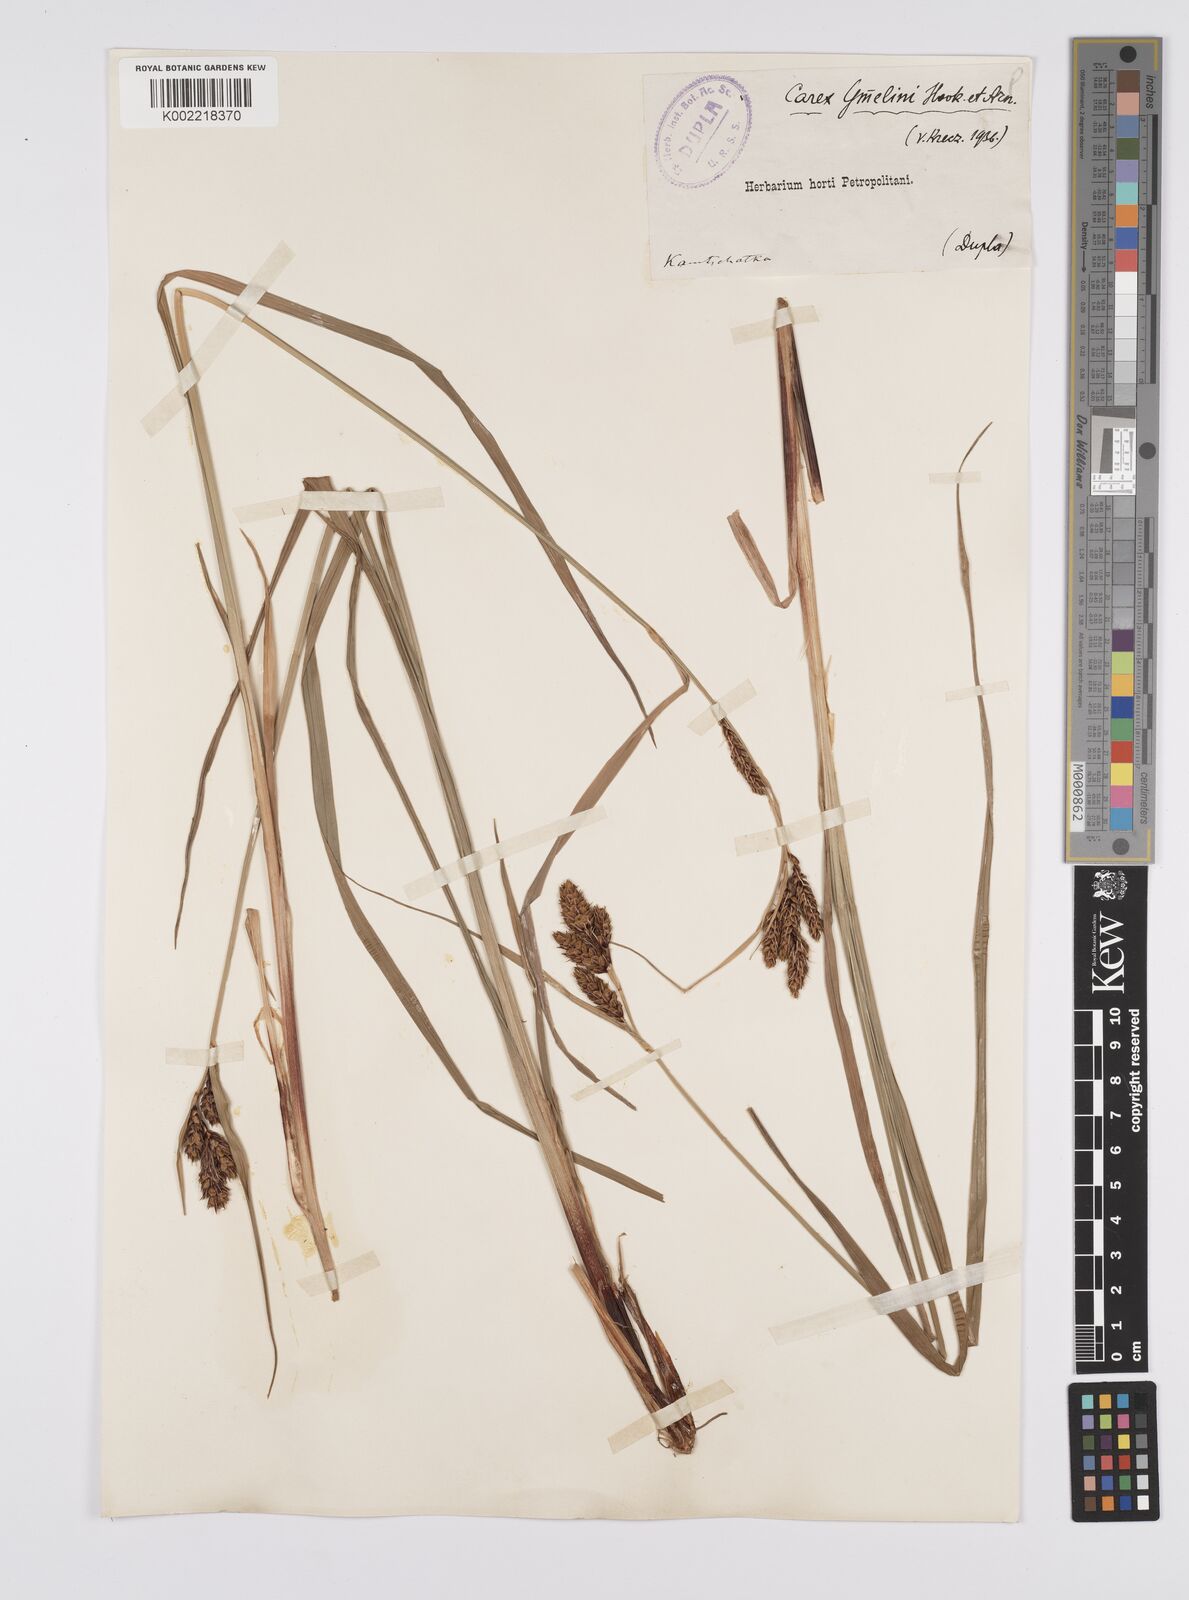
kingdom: Plantae
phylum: Tracheophyta
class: Liliopsida
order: Poales
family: Cyperaceae
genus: Carex
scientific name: Carex gmelinii
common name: Gmelin's sedge
